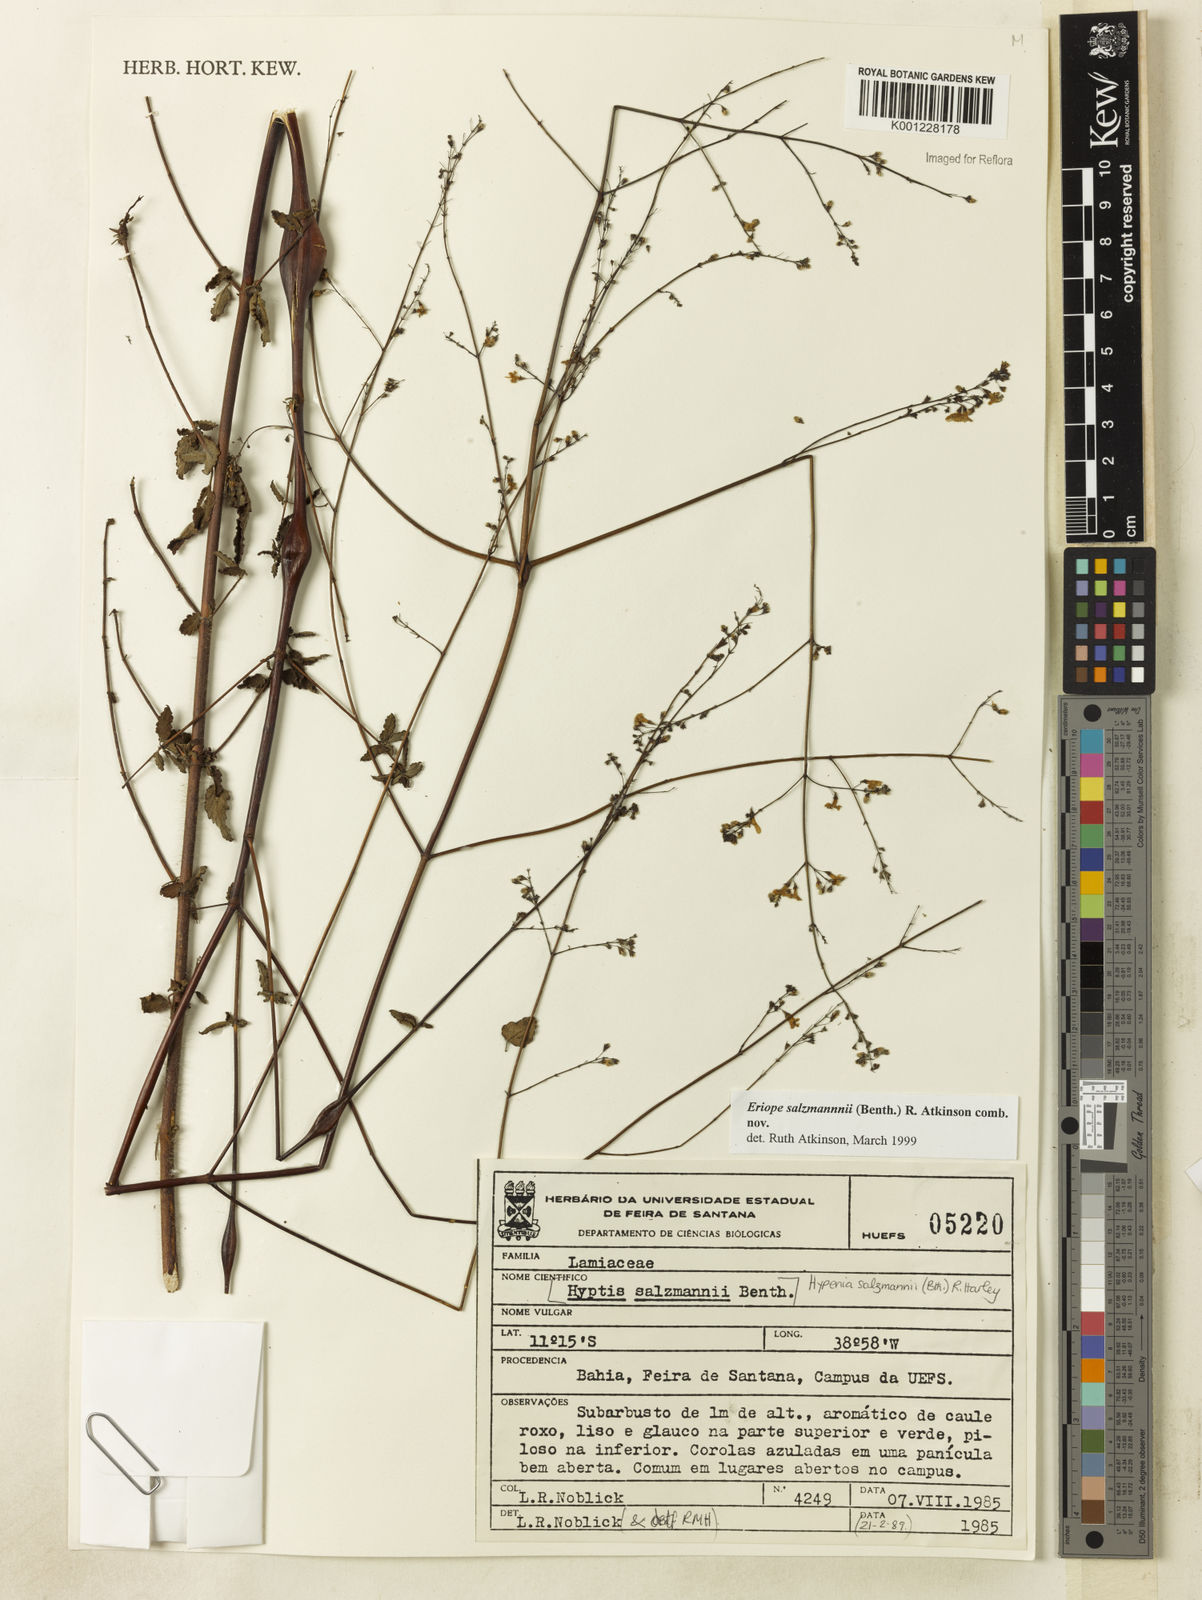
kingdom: Plantae
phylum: Tracheophyta
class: Magnoliopsida
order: Lamiales
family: Lamiaceae
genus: Hypenia
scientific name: Hypenia salzmannii
